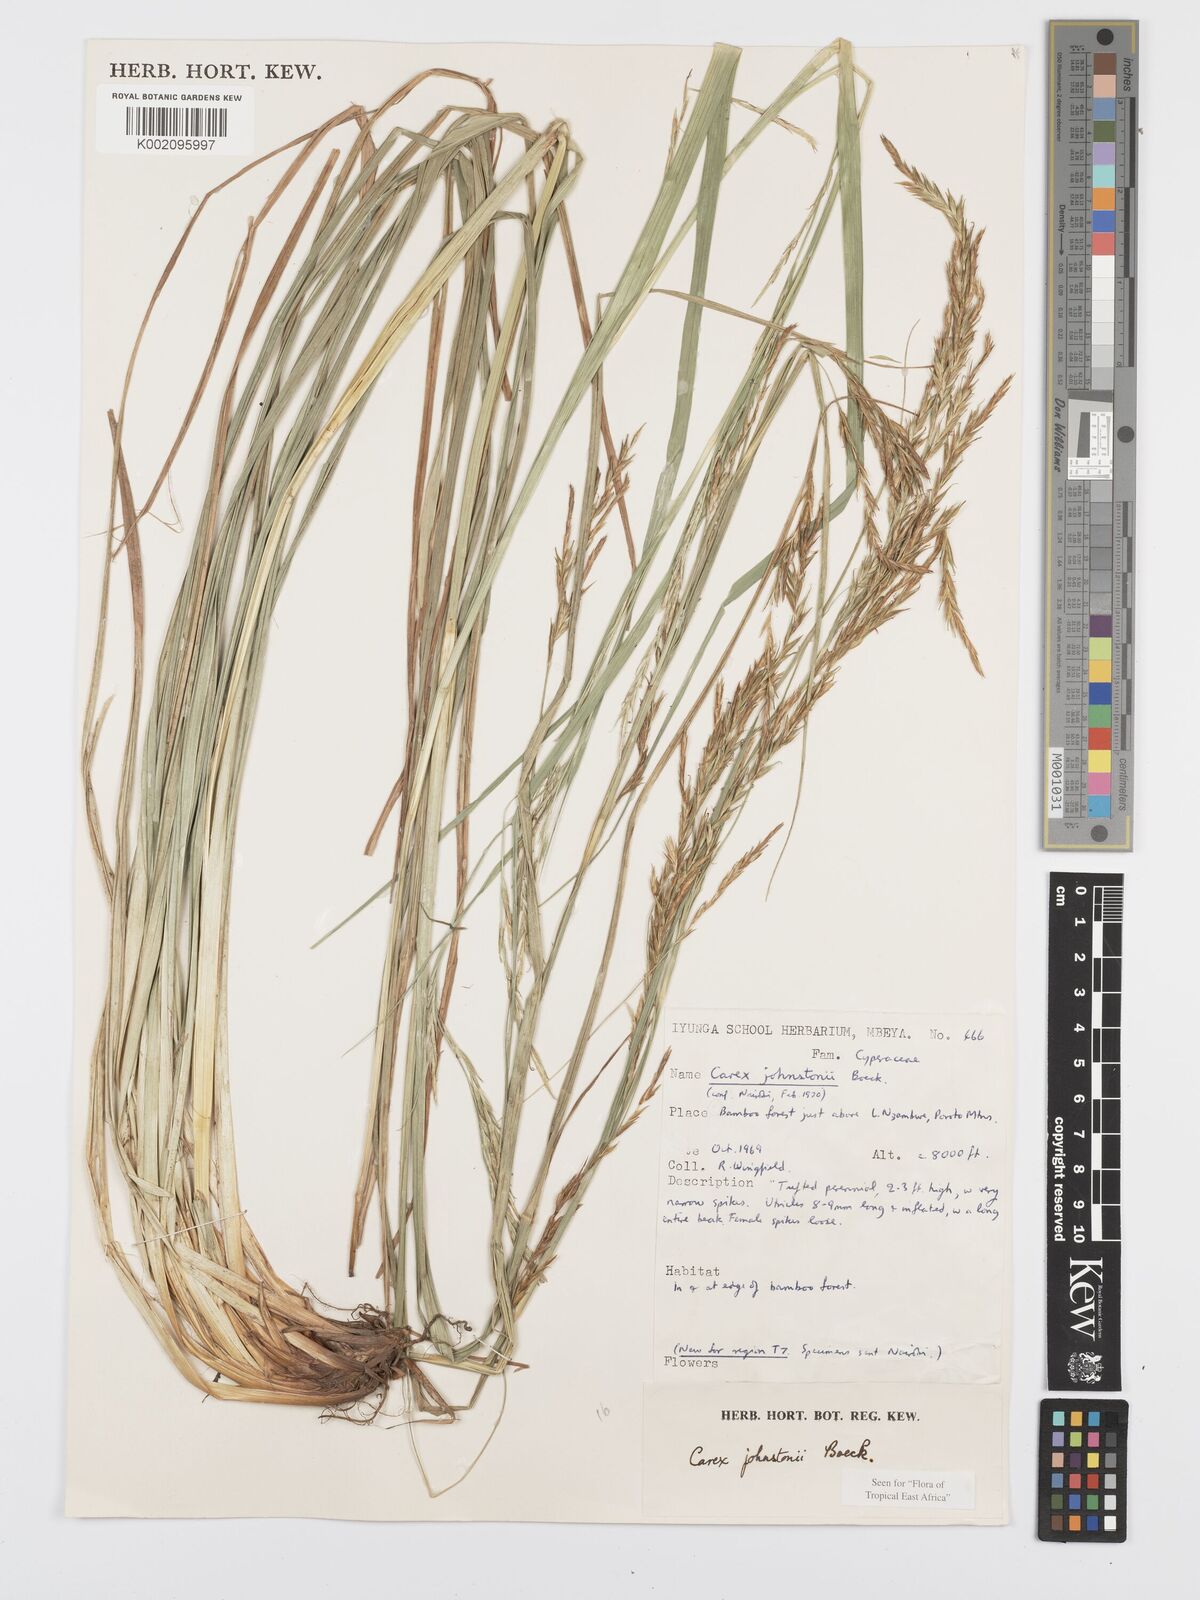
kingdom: Plantae
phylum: Tracheophyta
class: Liliopsida
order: Poales
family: Cyperaceae
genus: Carex
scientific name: Carex johnstonii
